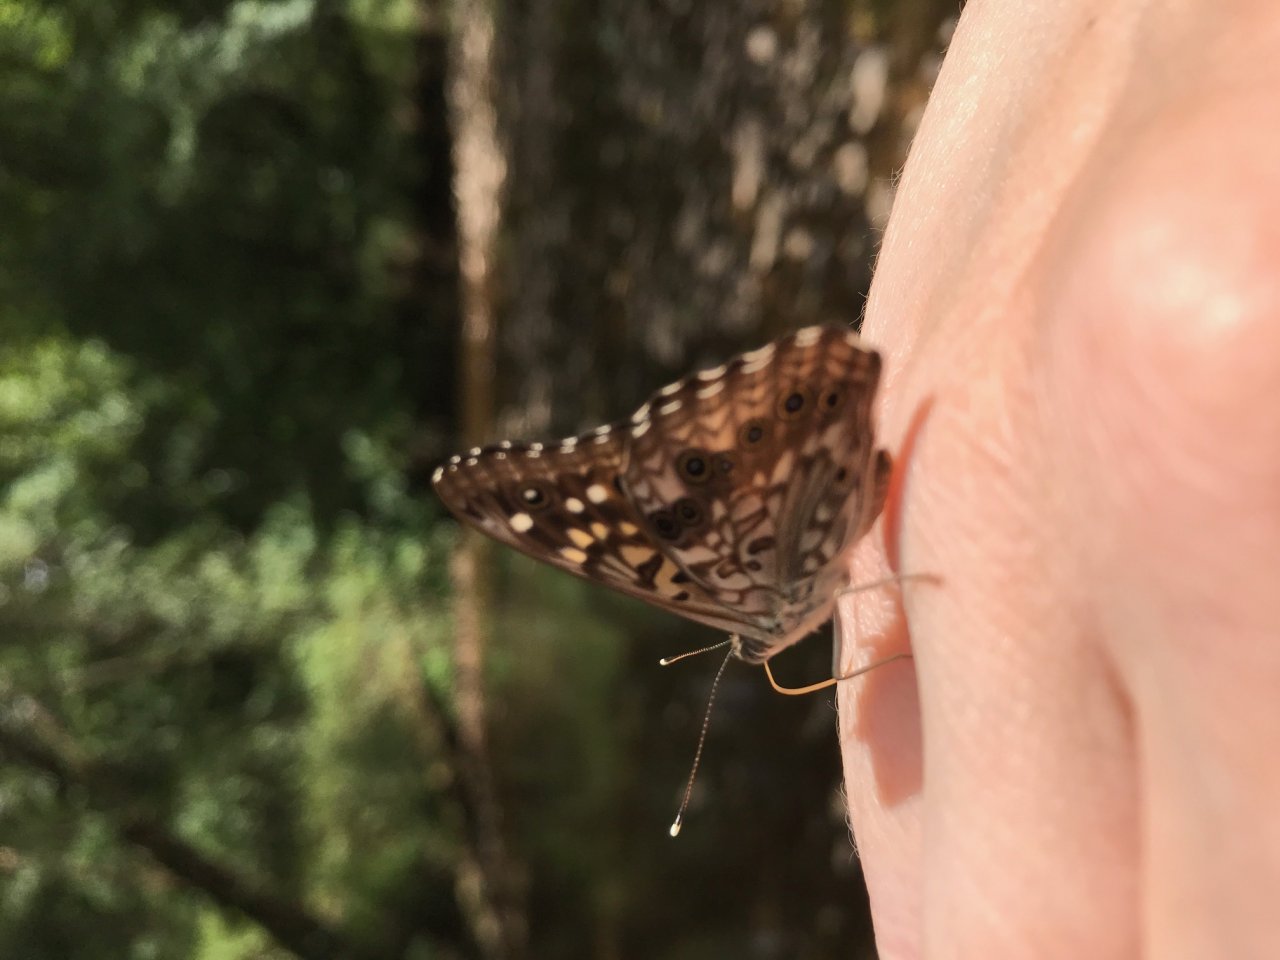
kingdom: Animalia
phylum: Arthropoda
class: Insecta
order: Lepidoptera
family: Nymphalidae
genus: Asterocampa
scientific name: Asterocampa celtis
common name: Hackberry Emperor
